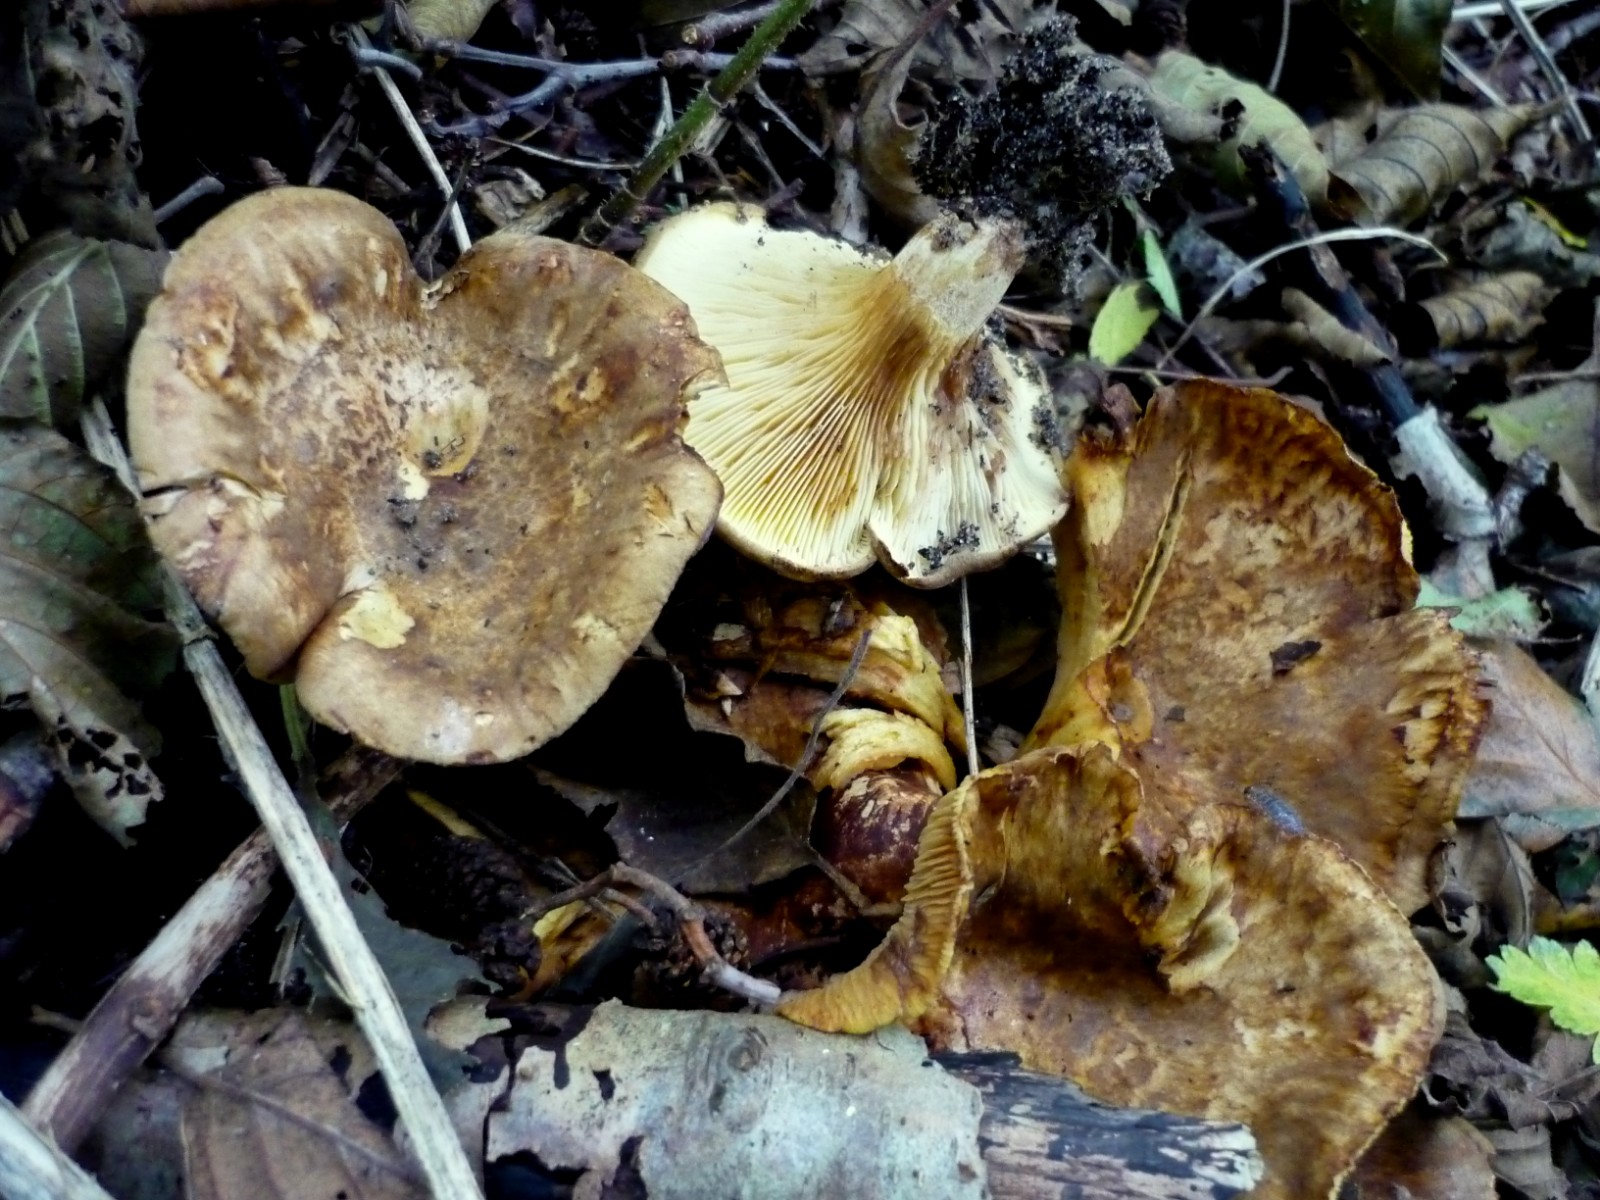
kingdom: Fungi
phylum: Basidiomycota
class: Agaricomycetes
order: Boletales
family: Paxillaceae
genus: Paxillus
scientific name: Paxillus rubicundulus
